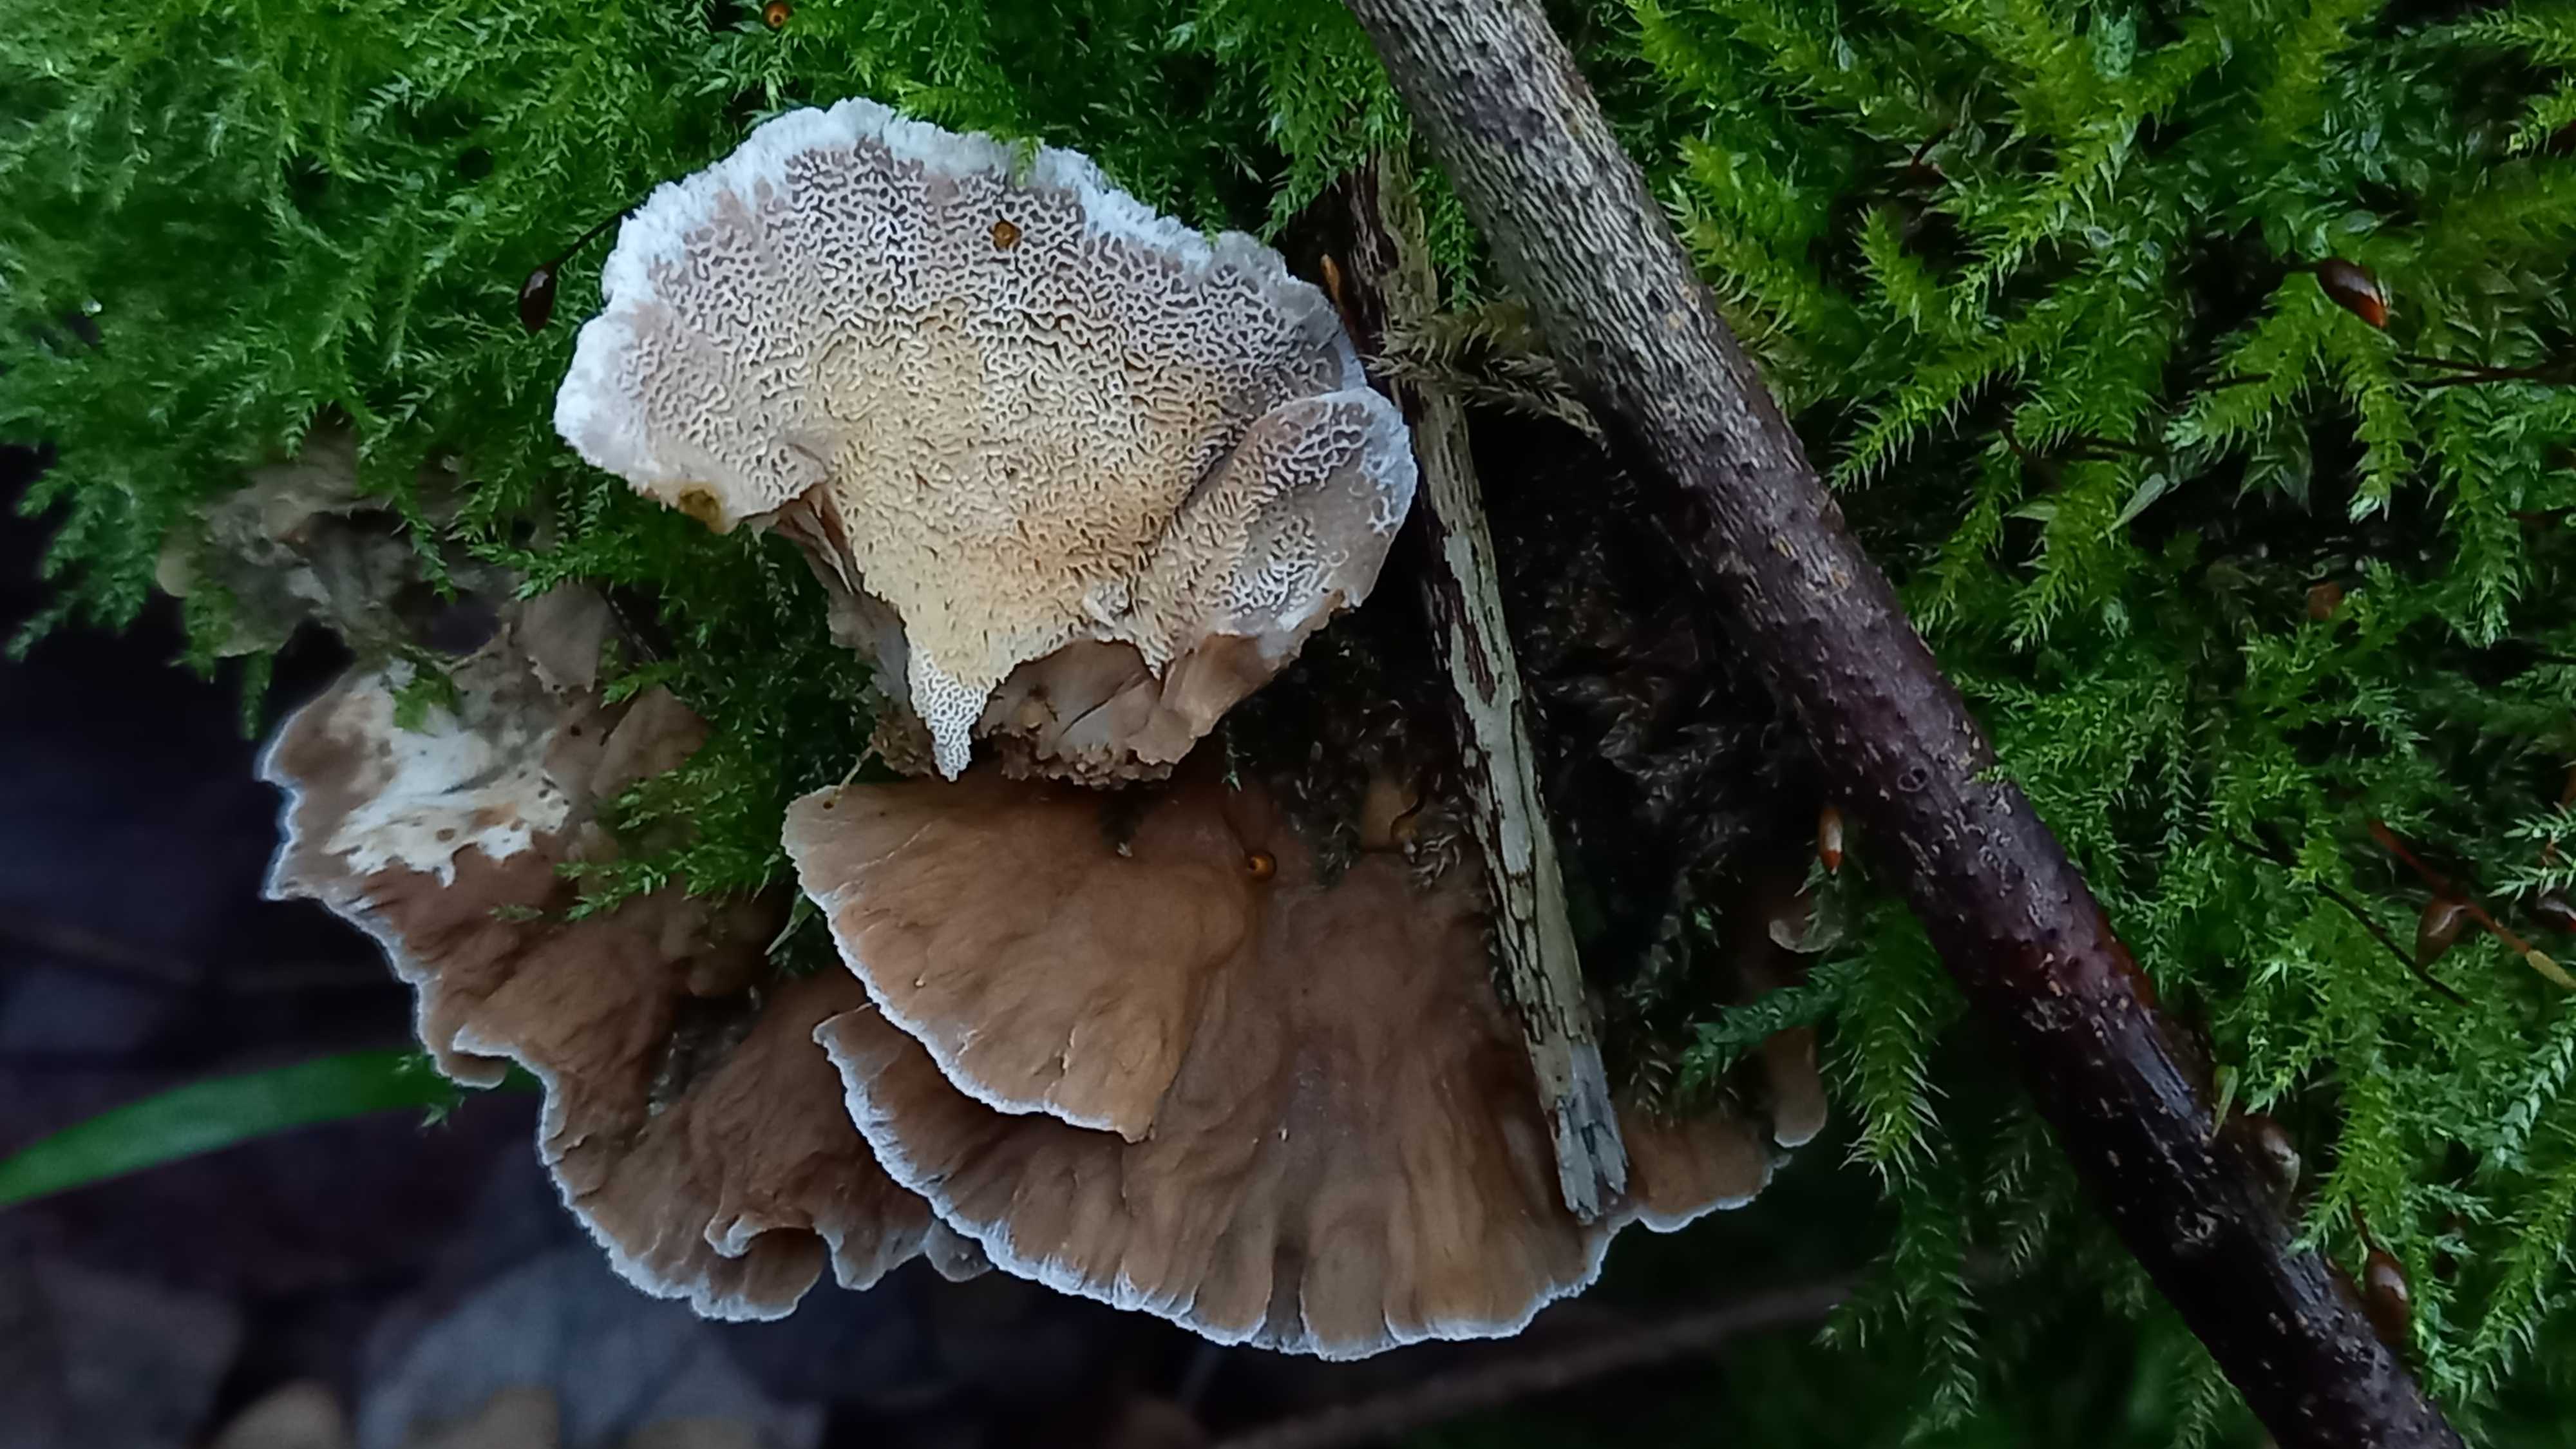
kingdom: Fungi
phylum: Basidiomycota
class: Agaricomycetes
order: Polyporales
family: Phanerochaetaceae
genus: Bjerkandera
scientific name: Bjerkandera fumosa
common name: grågul sodporesvamp
